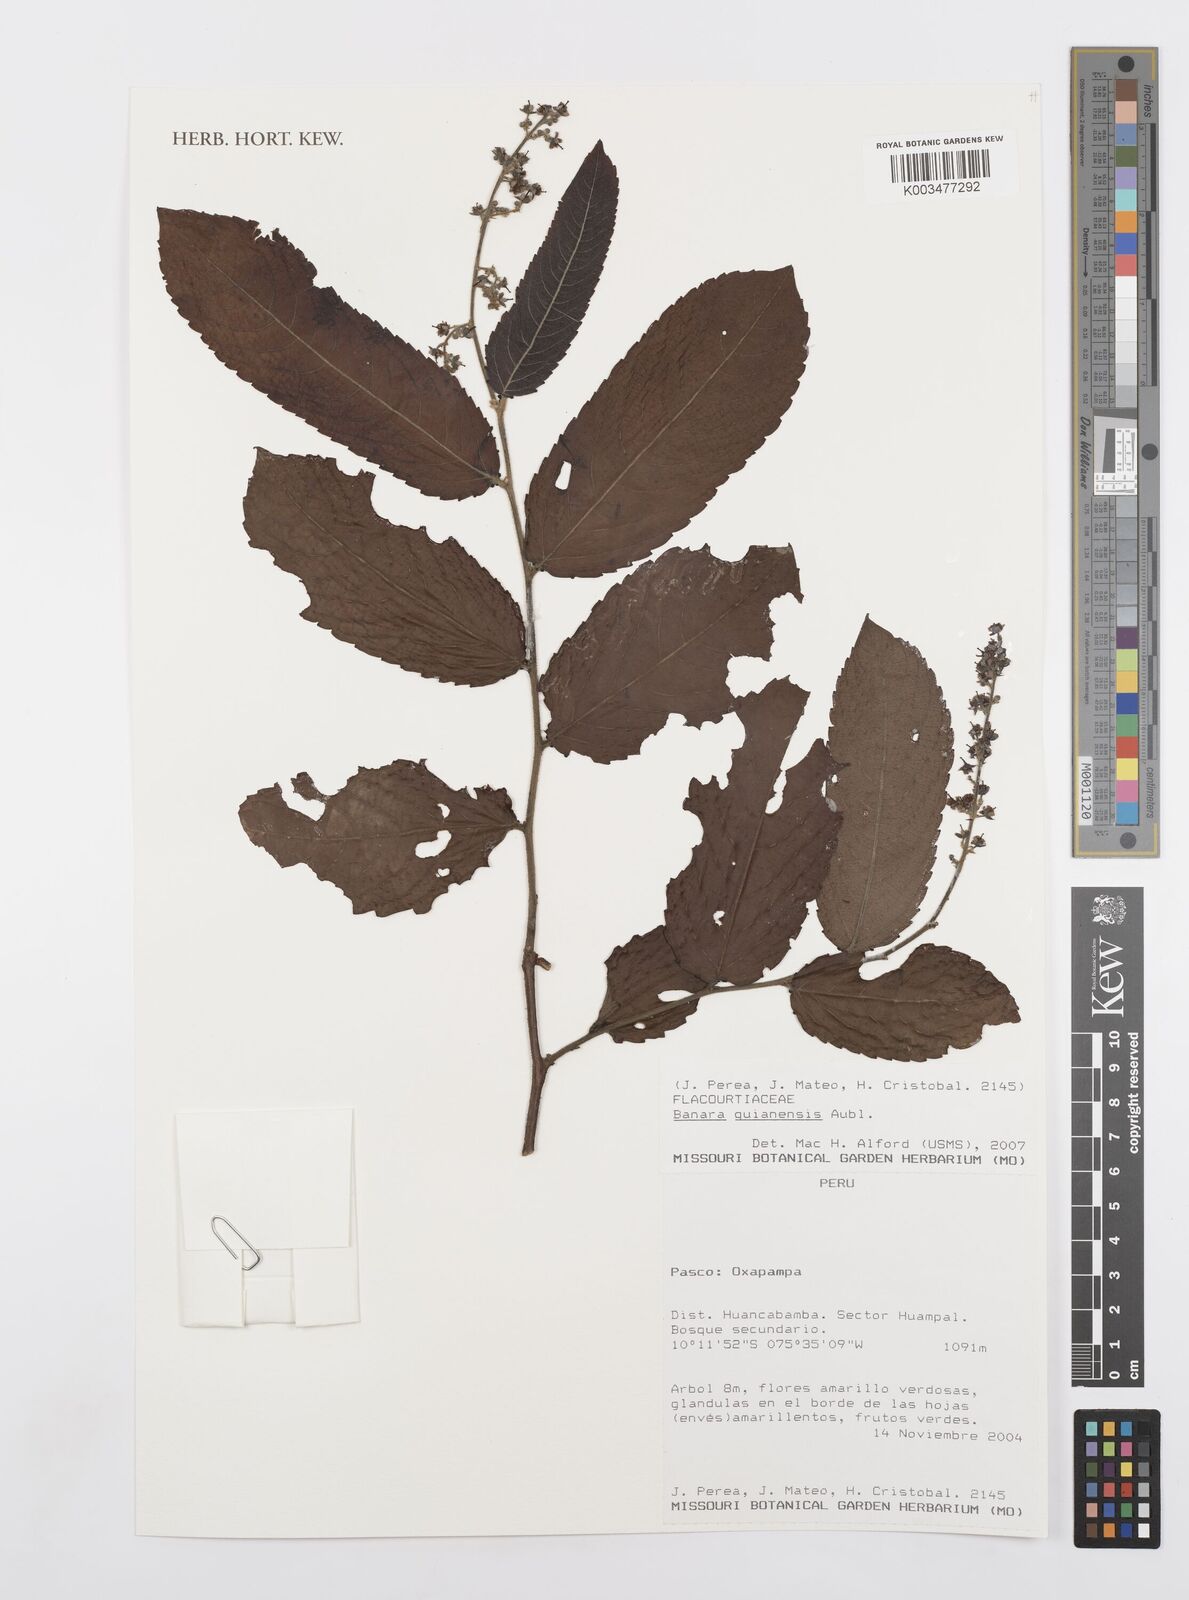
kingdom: Plantae
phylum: Tracheophyta
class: Magnoliopsida
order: Malpighiales
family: Salicaceae
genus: Banara
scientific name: Banara guianensis
